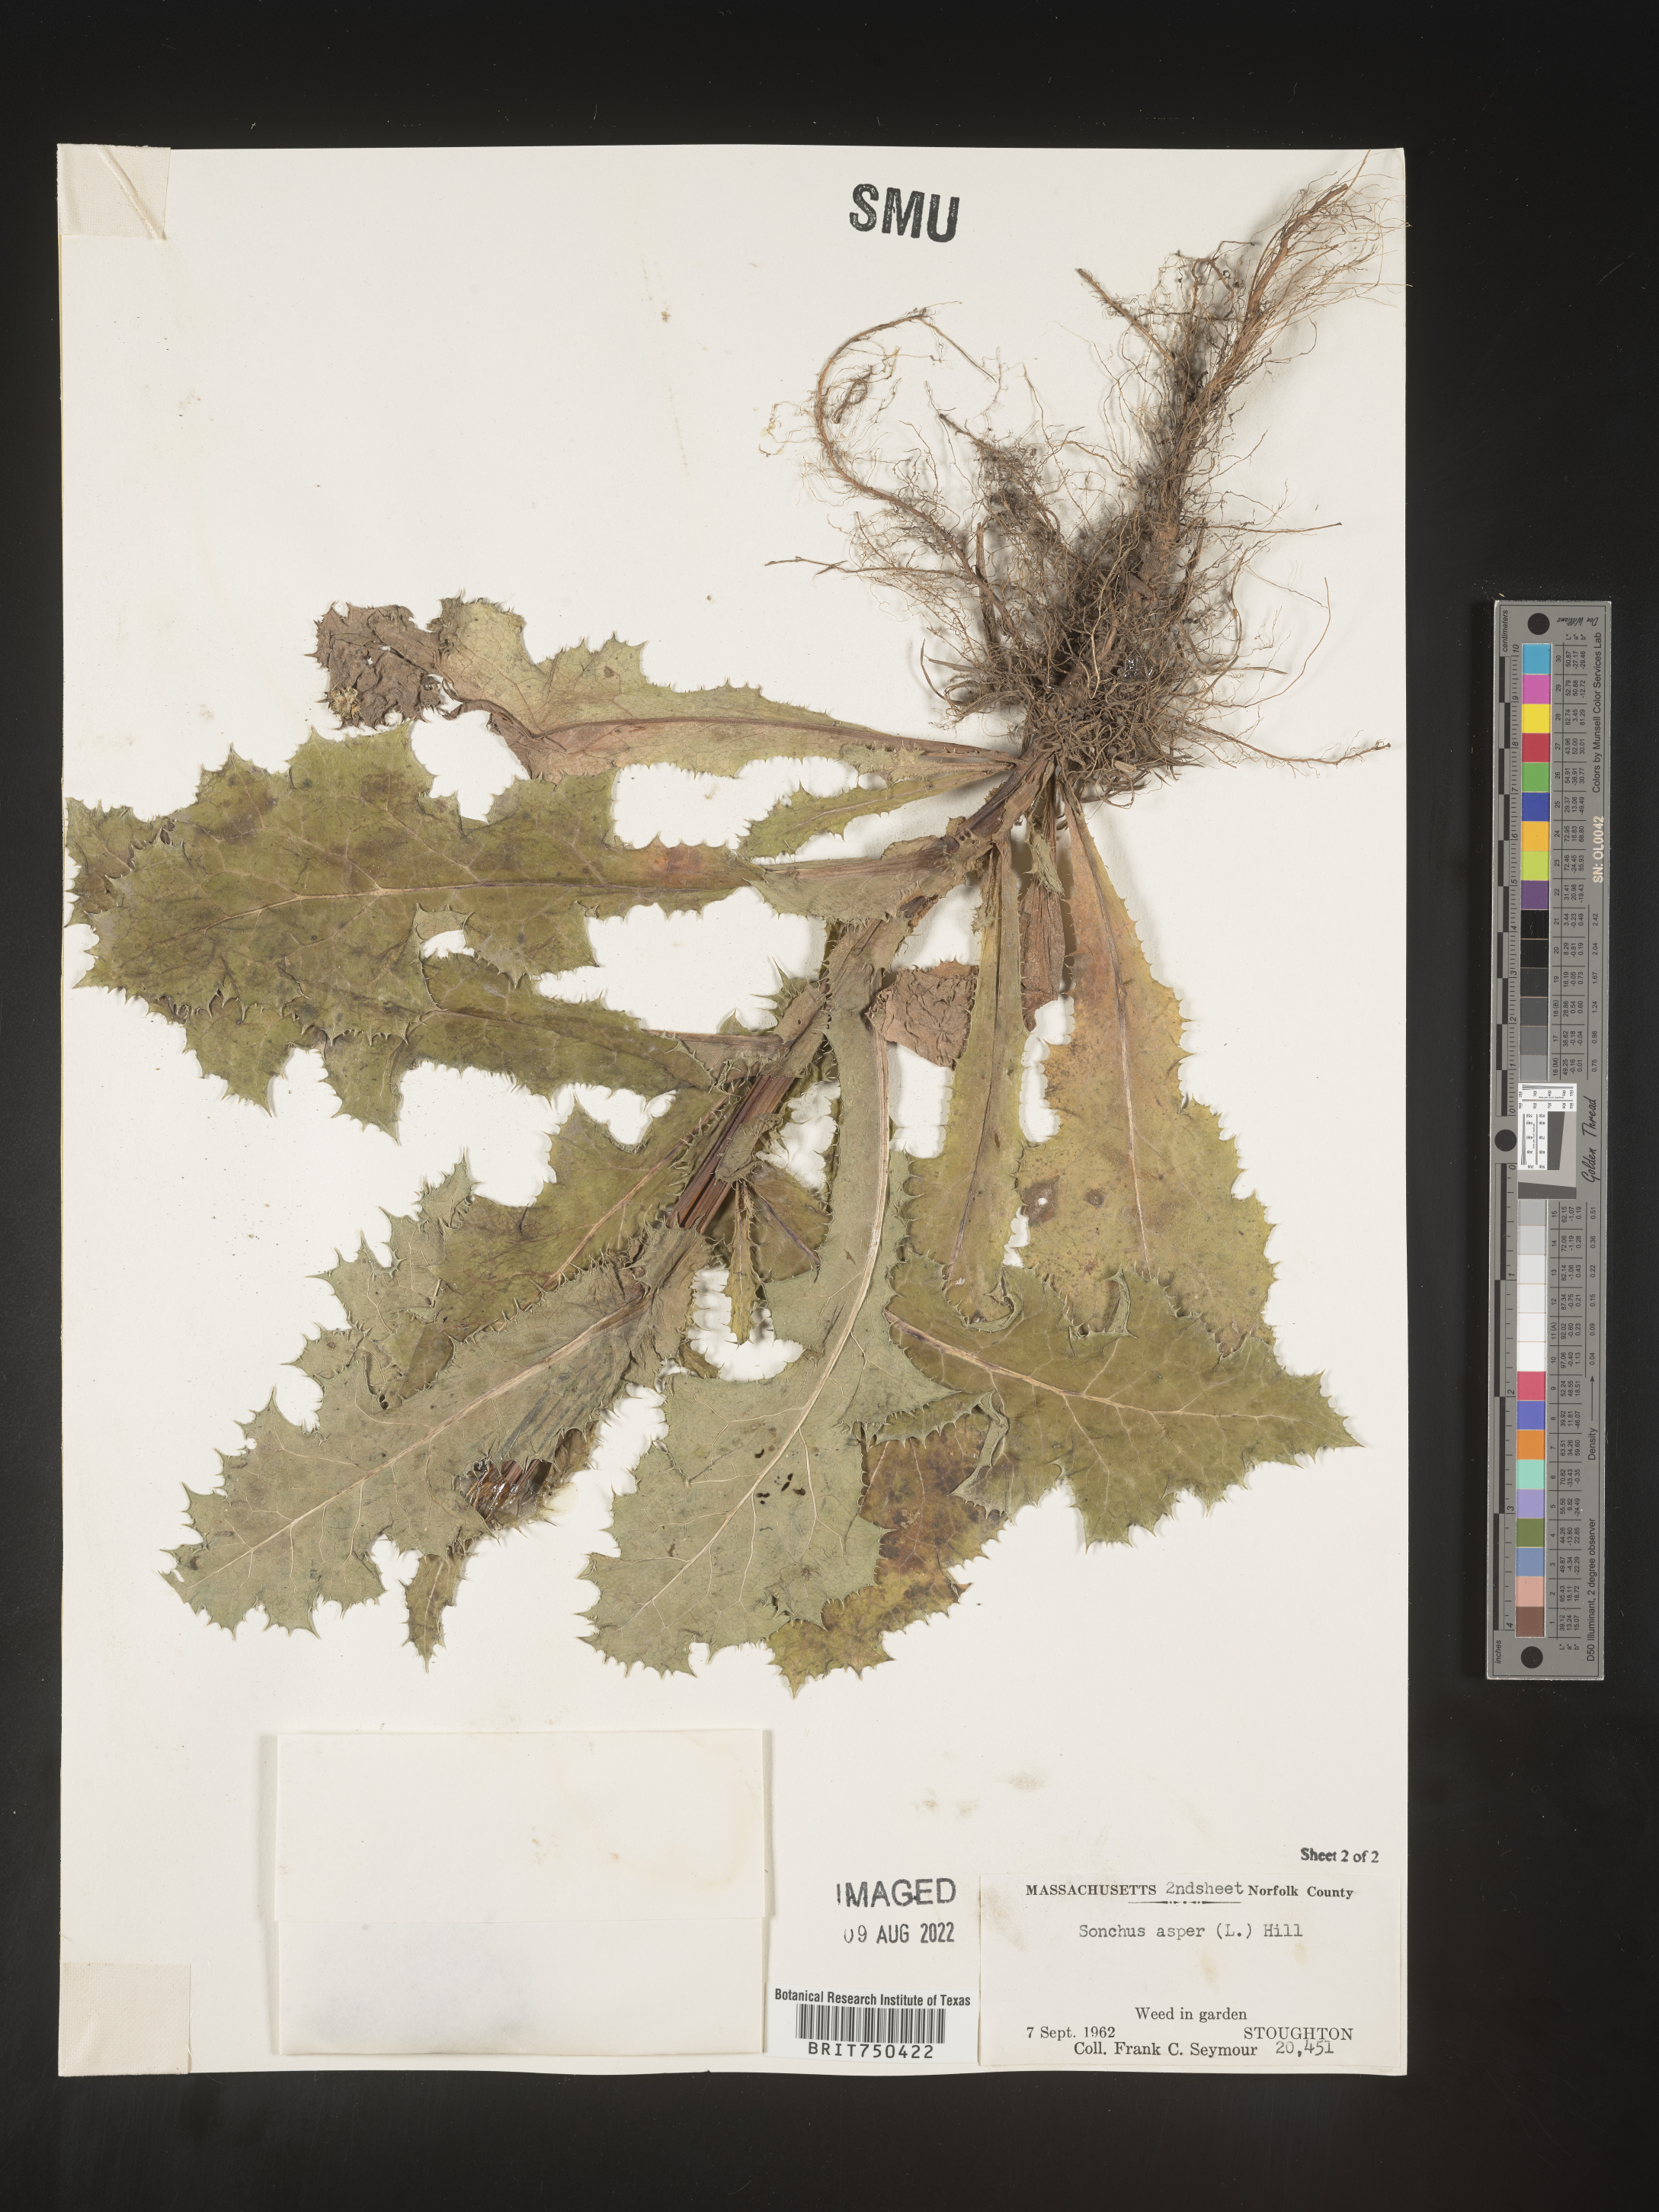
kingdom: Plantae
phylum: Tracheophyta
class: Magnoliopsida
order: Asterales
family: Asteraceae
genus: Sonchus
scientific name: Sonchus asper
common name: Prickly sow-thistle
